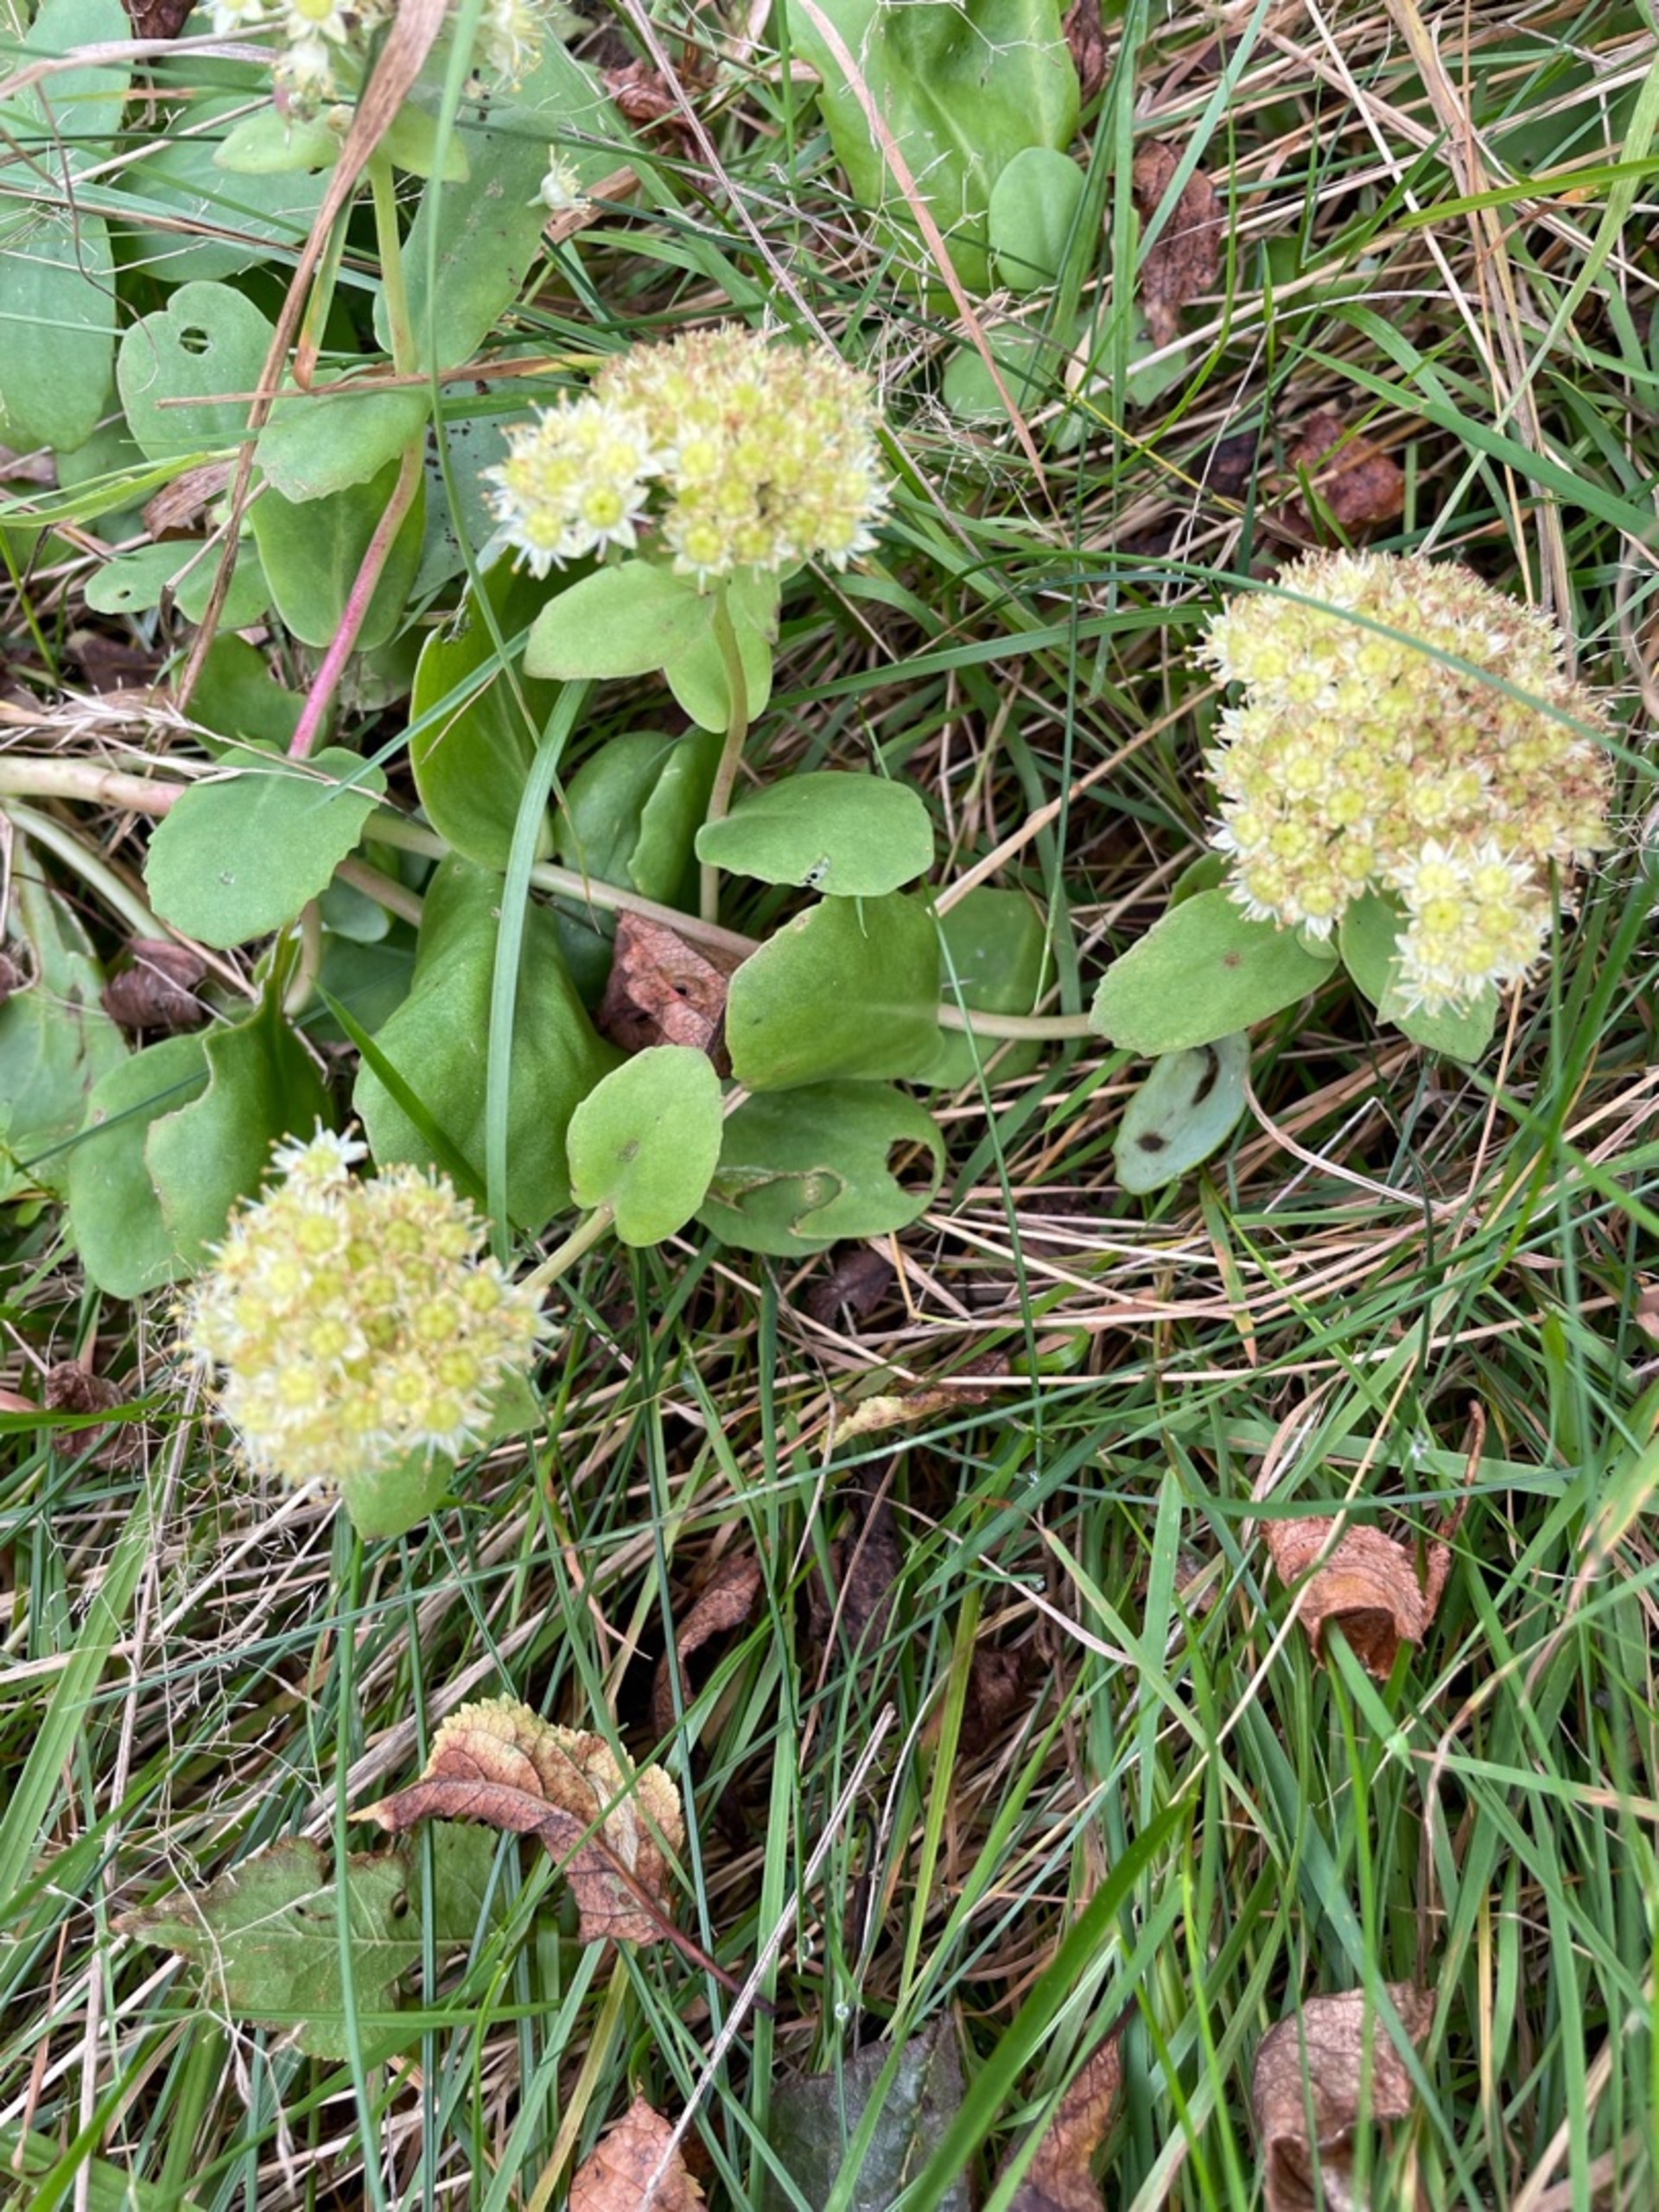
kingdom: Plantae
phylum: Tracheophyta
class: Magnoliopsida
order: Saxifragales
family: Crassulaceae
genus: Hylotelephium
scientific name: Hylotelephium telephium
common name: Sankthansurt
